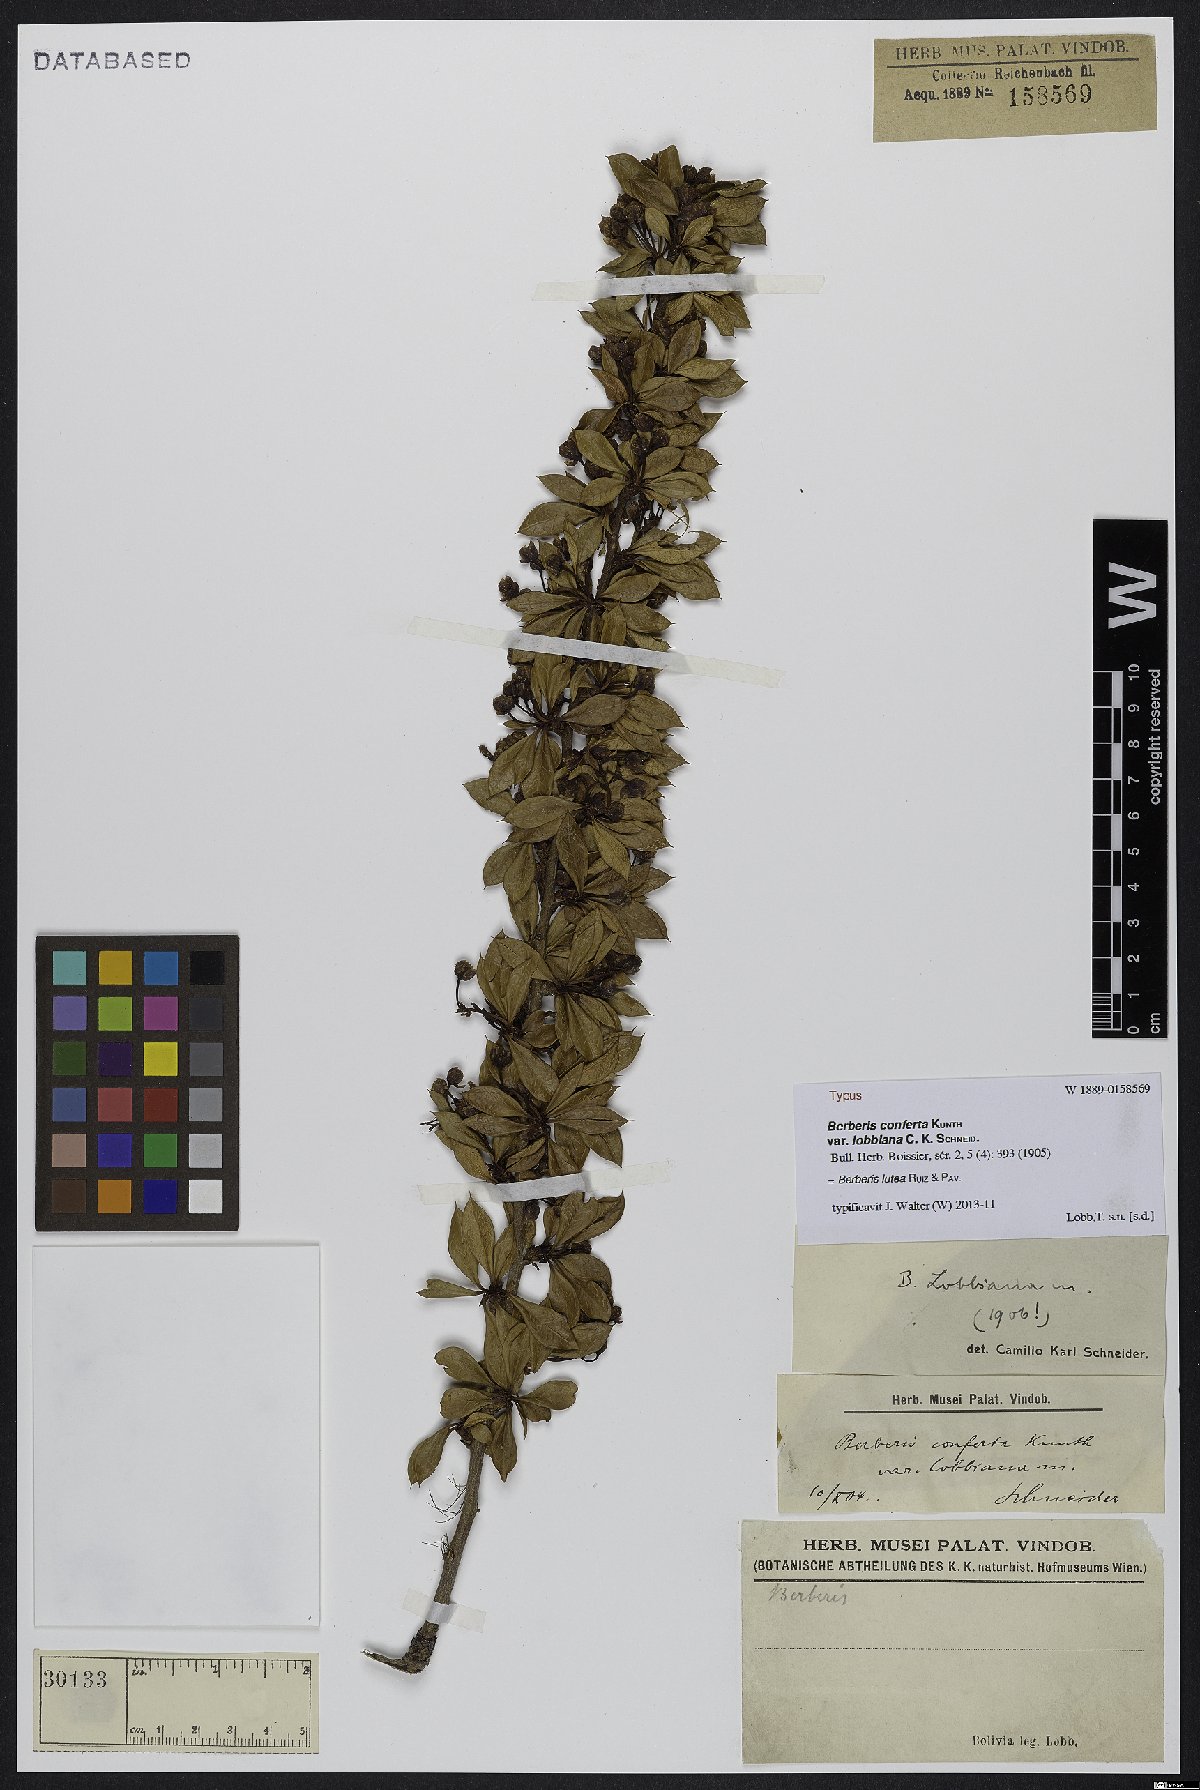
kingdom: Plantae
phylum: Tracheophyta
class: Magnoliopsida
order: Ranunculales
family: Berberidaceae
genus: Berberis
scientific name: Berberis lutea
